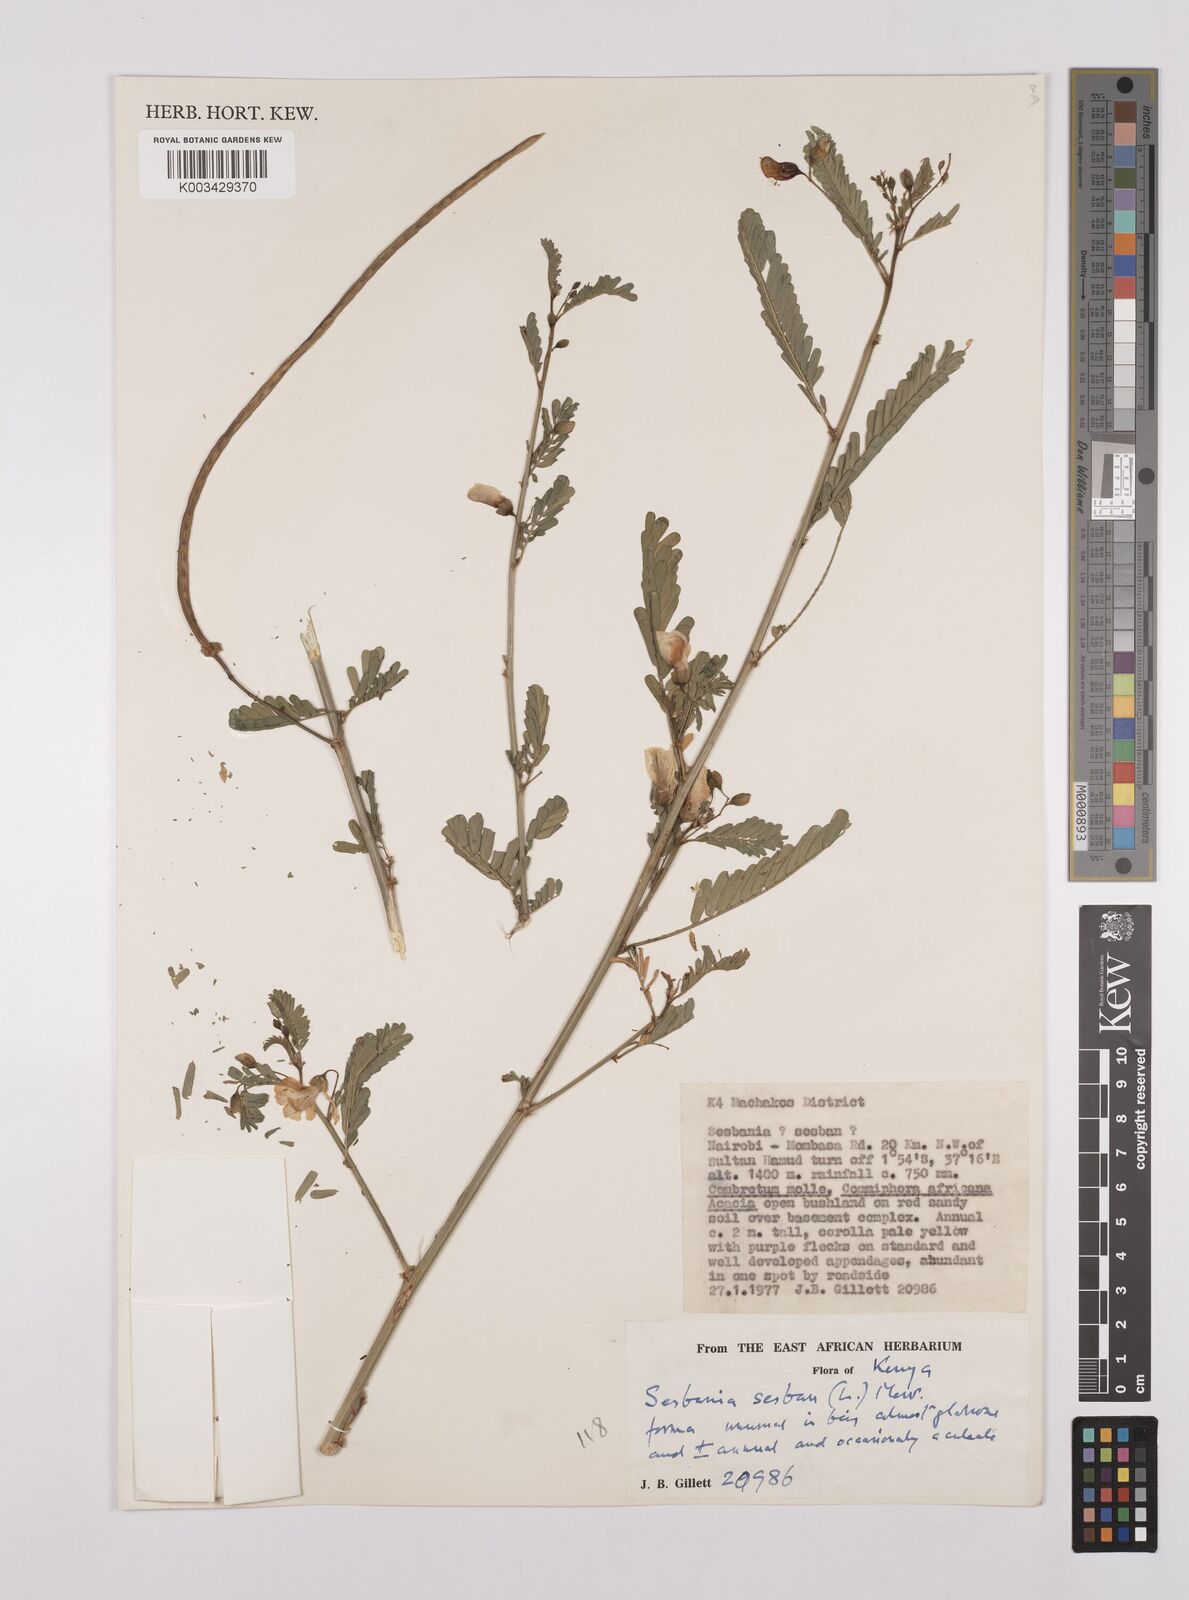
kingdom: Plantae
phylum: Tracheophyta
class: Magnoliopsida
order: Fabales
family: Fabaceae
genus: Sesbania
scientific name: Sesbania sesban
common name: Egyptian sesban
